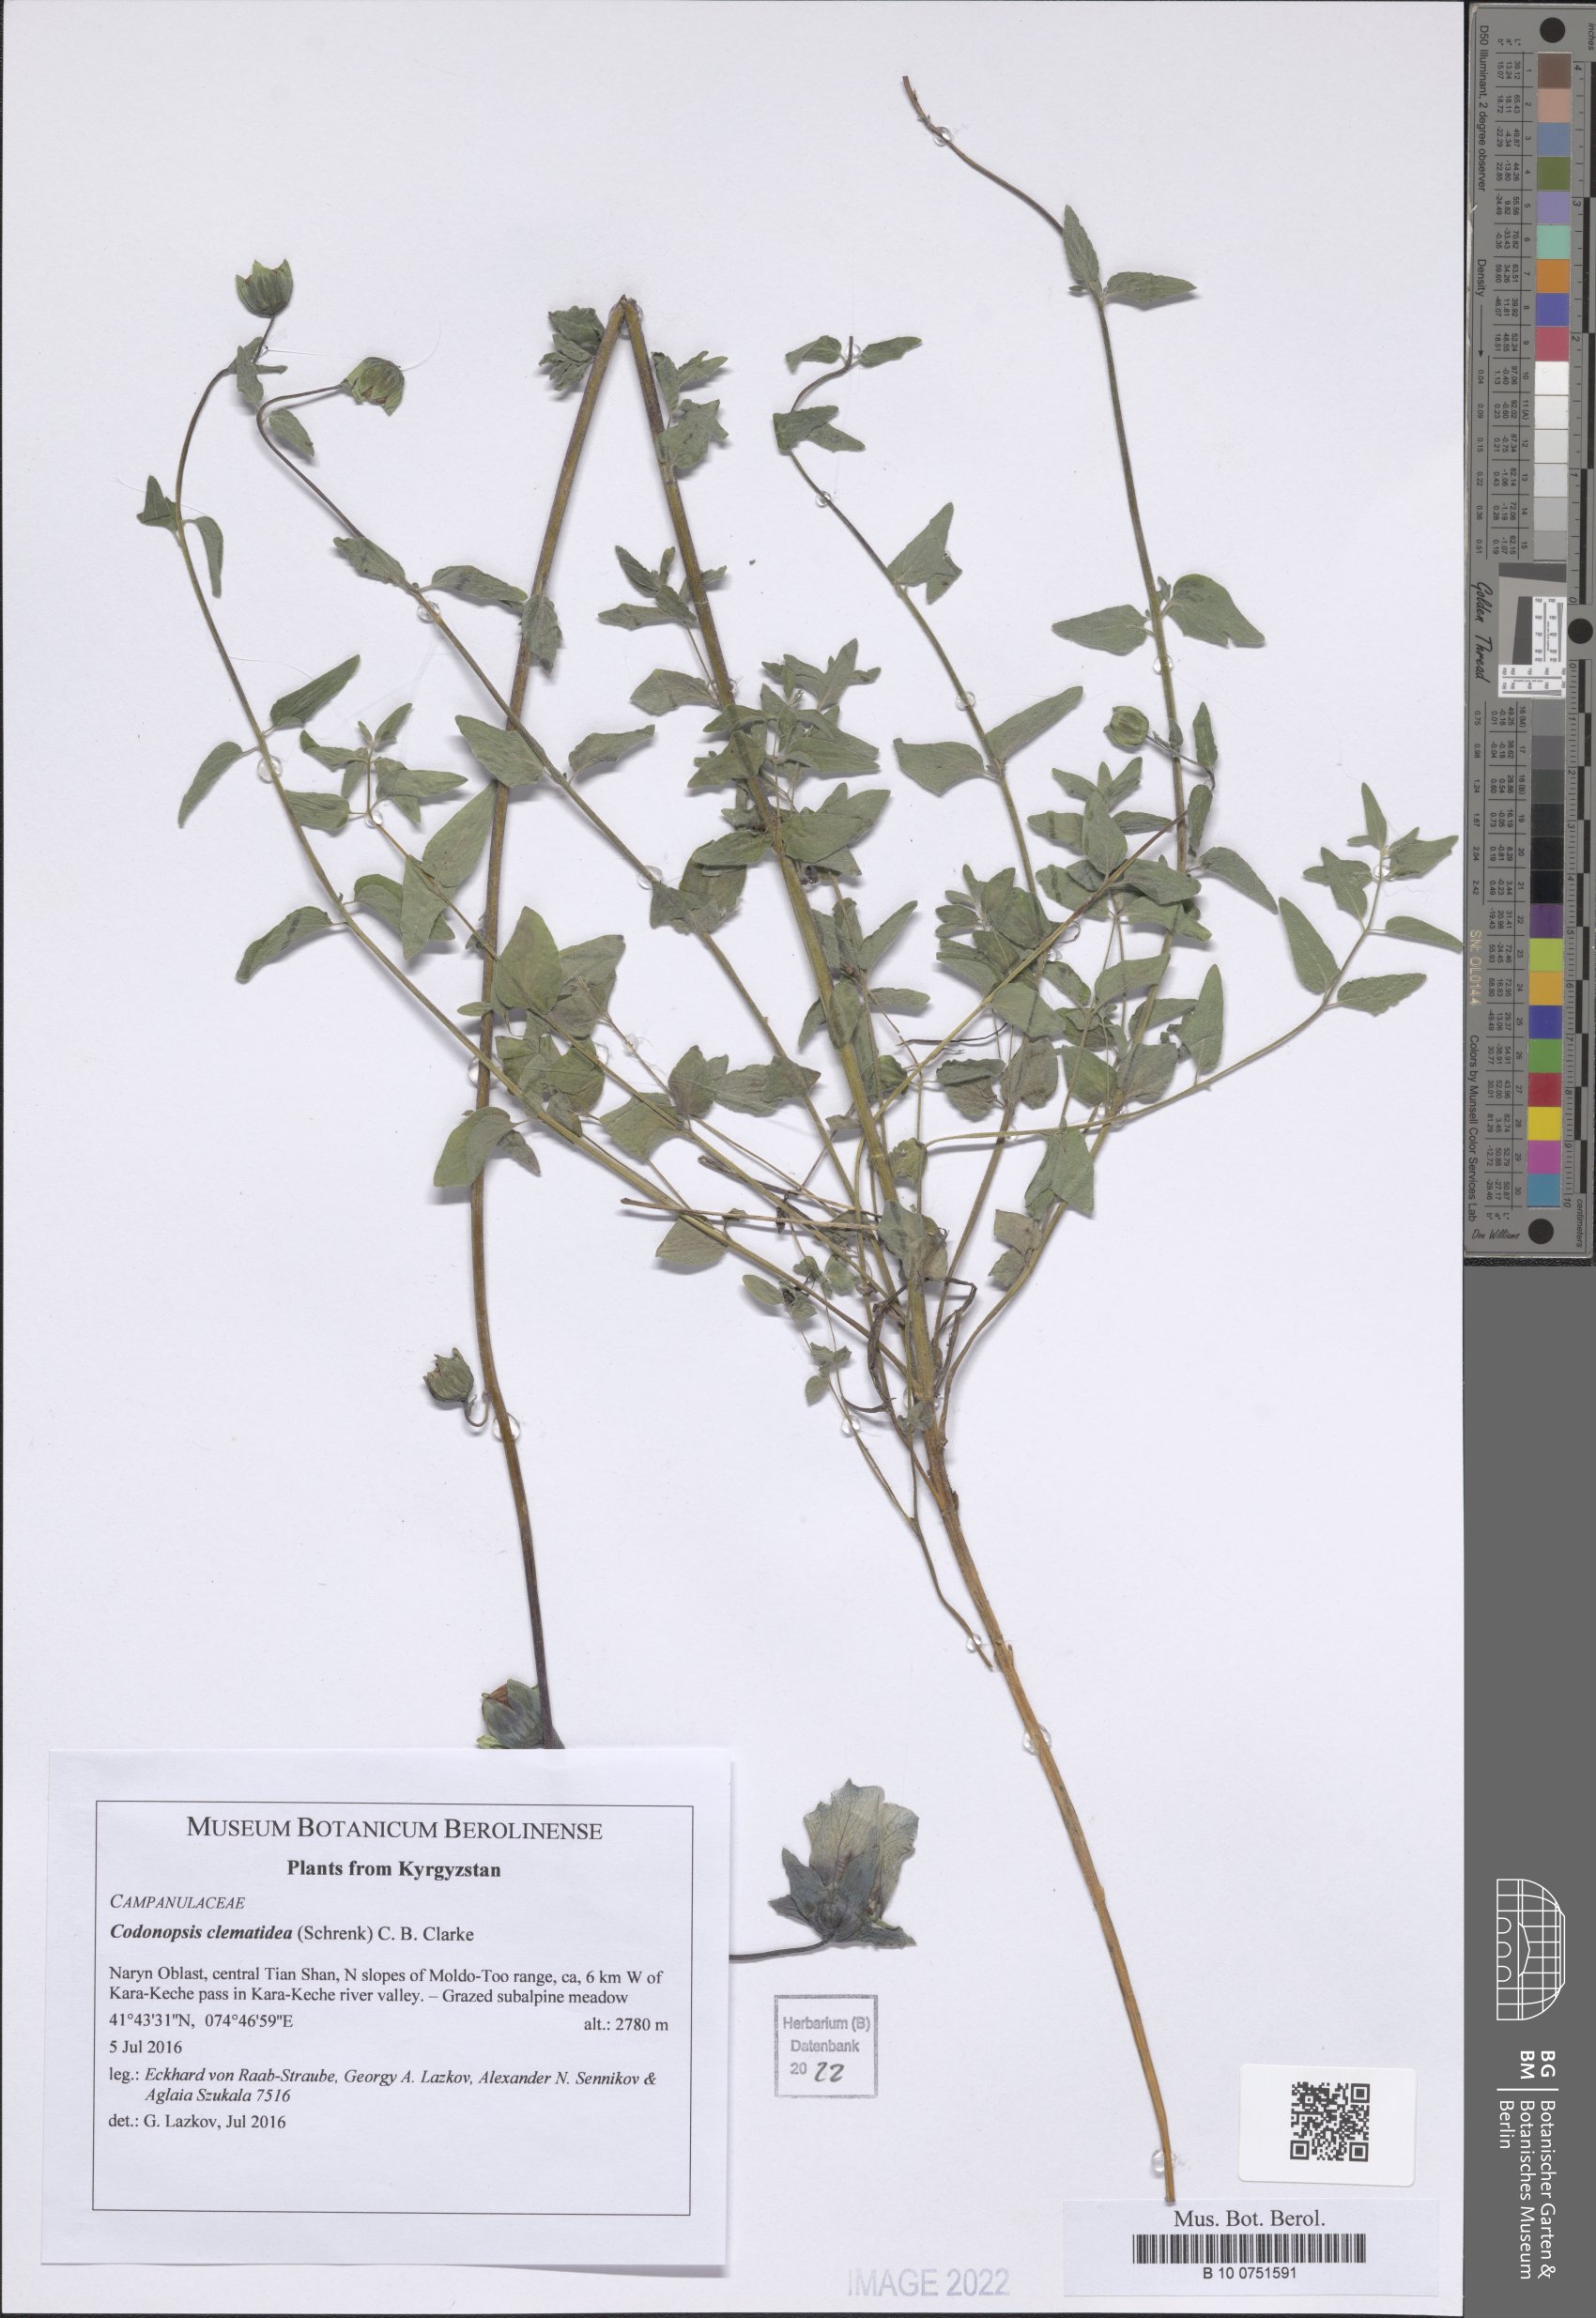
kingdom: Plantae
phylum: Tracheophyta
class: Magnoliopsida
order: Asterales
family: Campanulaceae
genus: Codonopsis
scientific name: Codonopsis clematidea
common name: Bonnet-bellflower
